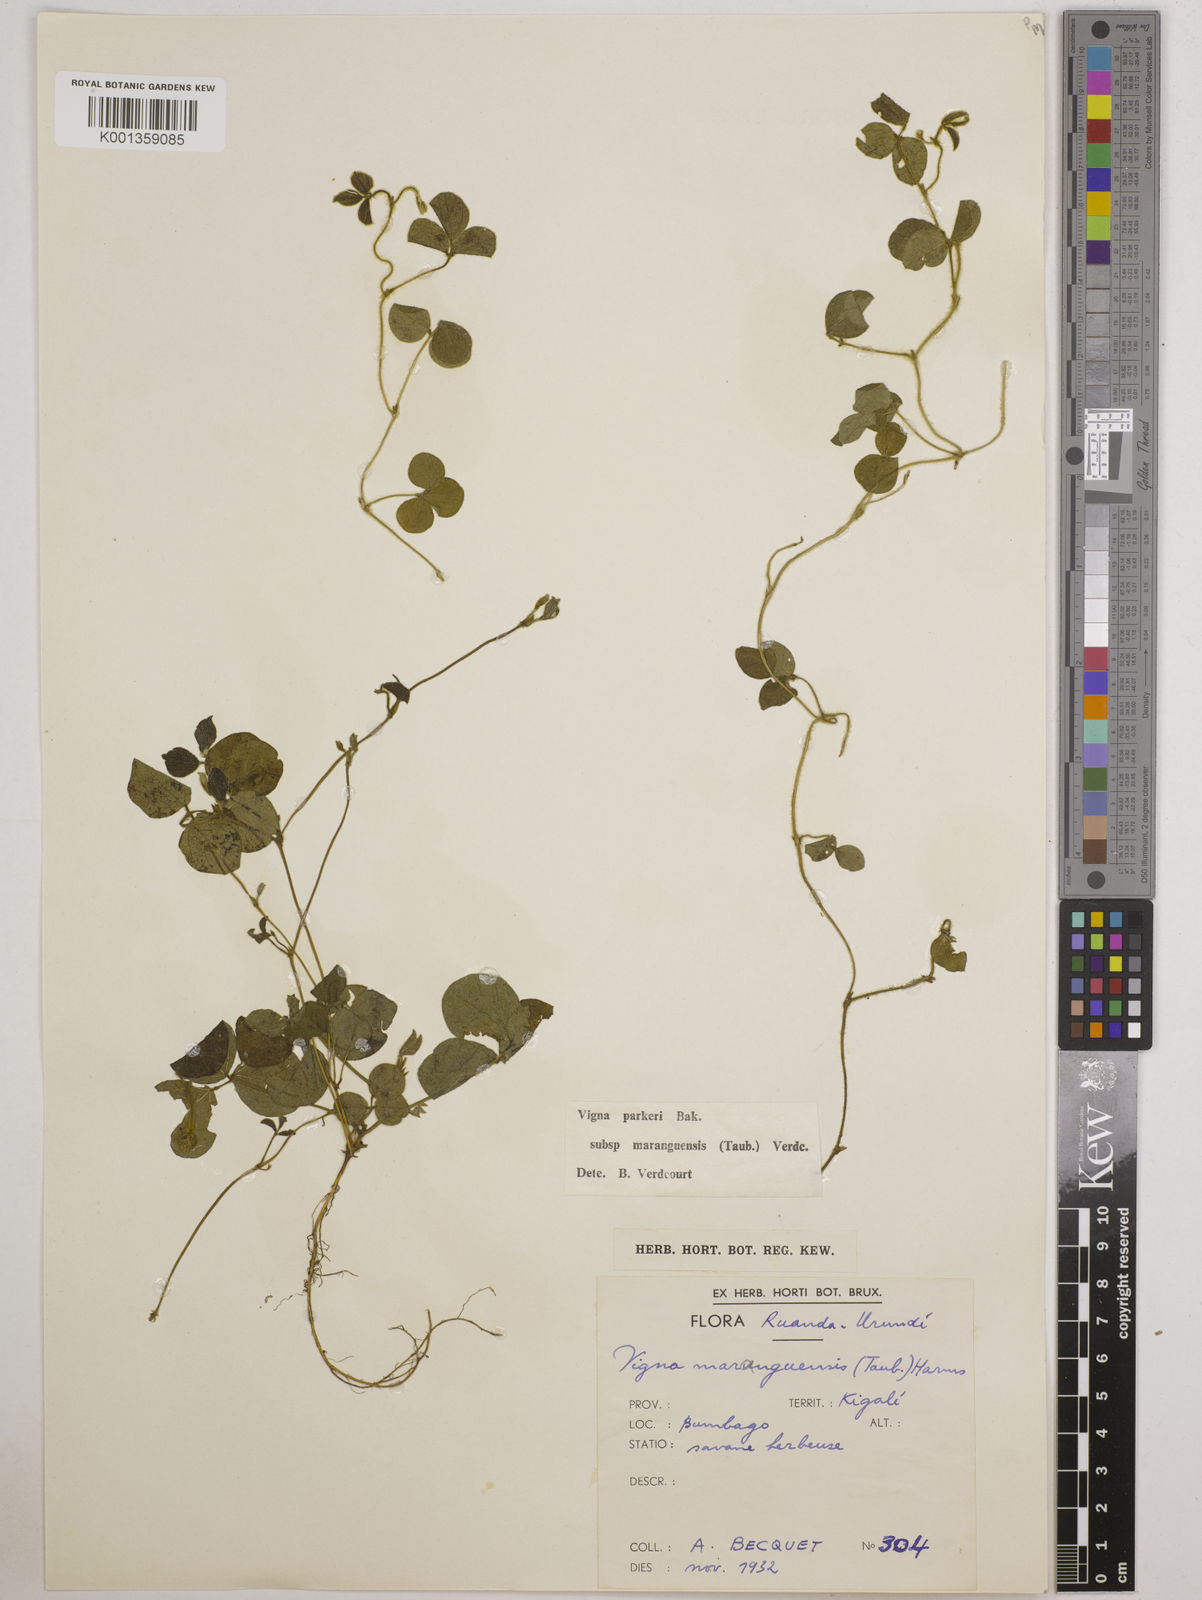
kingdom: Plantae
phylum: Tracheophyta
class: Magnoliopsida
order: Fabales
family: Fabaceae
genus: Vigna
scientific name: Vigna
